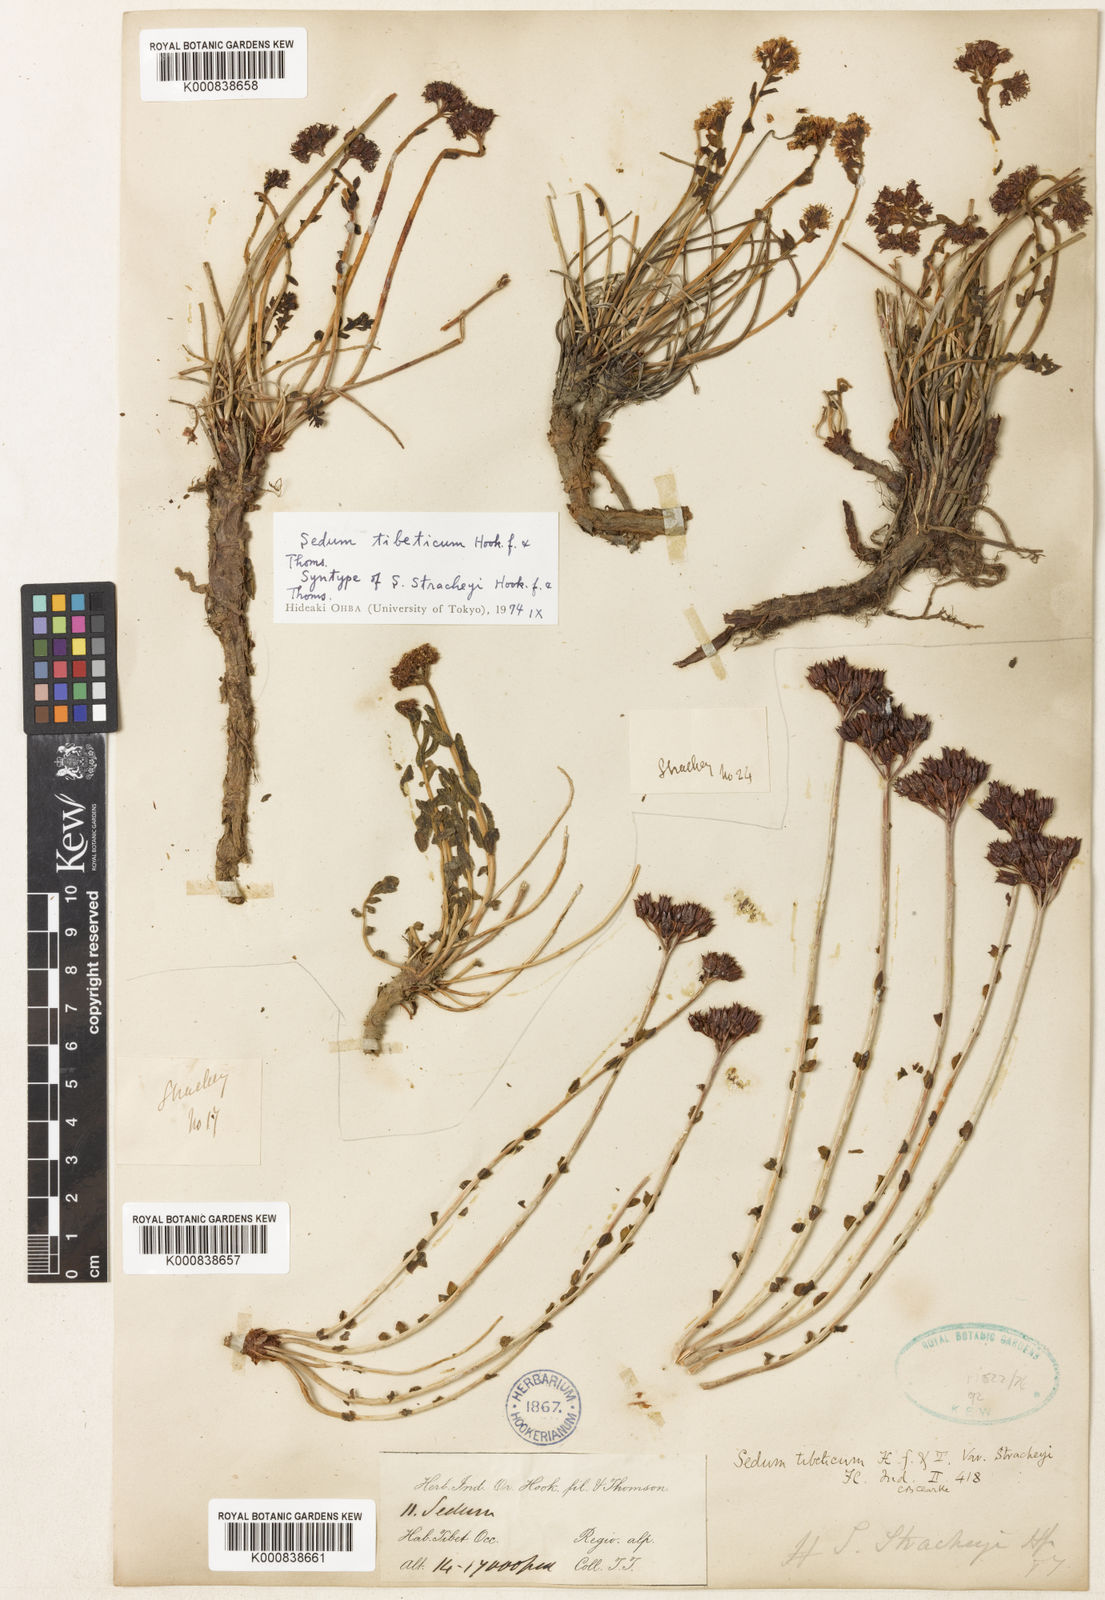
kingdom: Plantae
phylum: Tracheophyta
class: Magnoliopsida
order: Saxifragales
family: Crassulaceae
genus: Rhodiola
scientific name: Rhodiola tibetica
